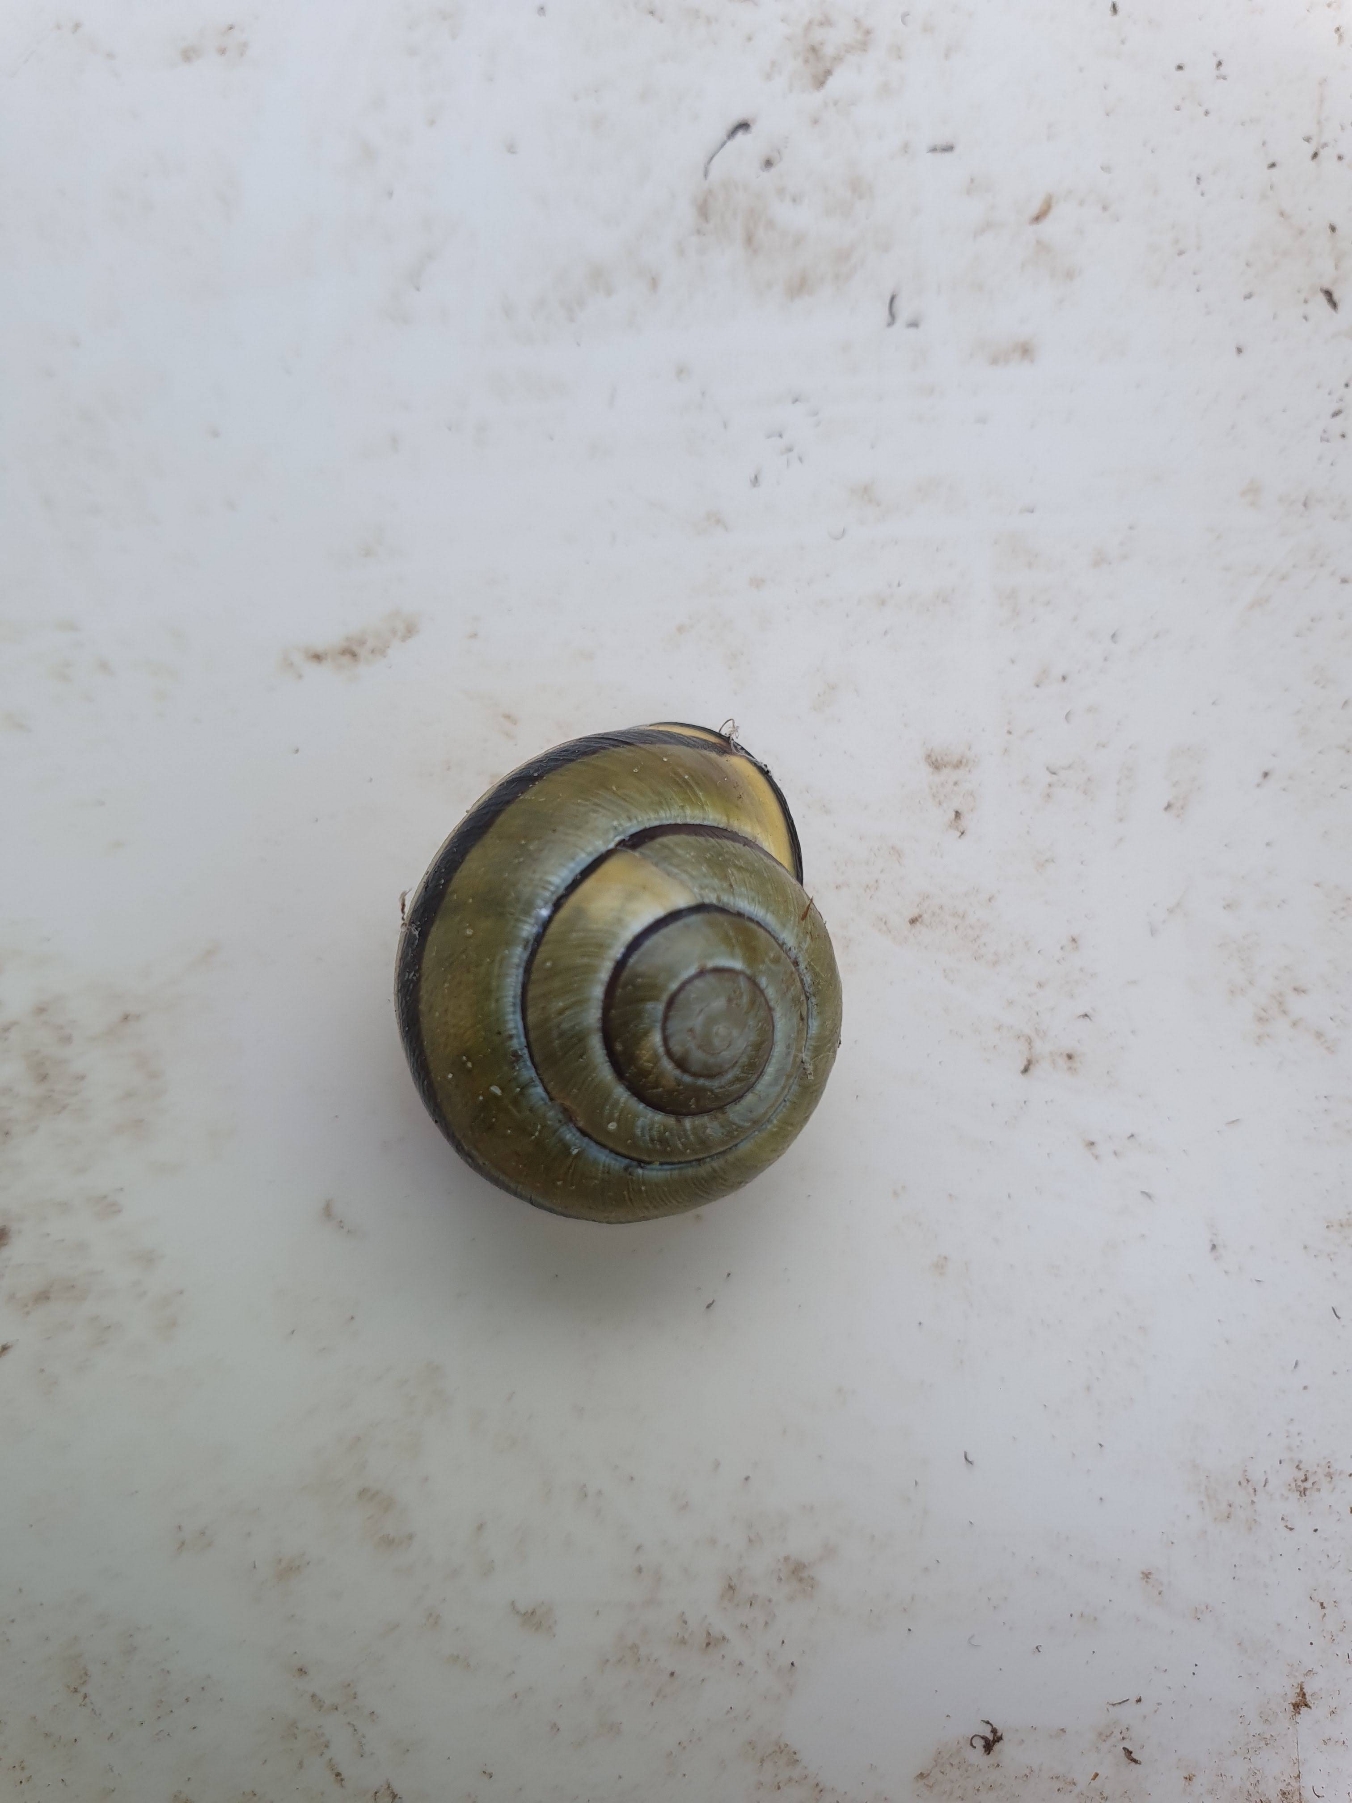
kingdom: Animalia
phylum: Mollusca
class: Gastropoda
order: Stylommatophora
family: Helicidae
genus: Cepaea
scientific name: Cepaea nemoralis
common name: Lundsnegl
